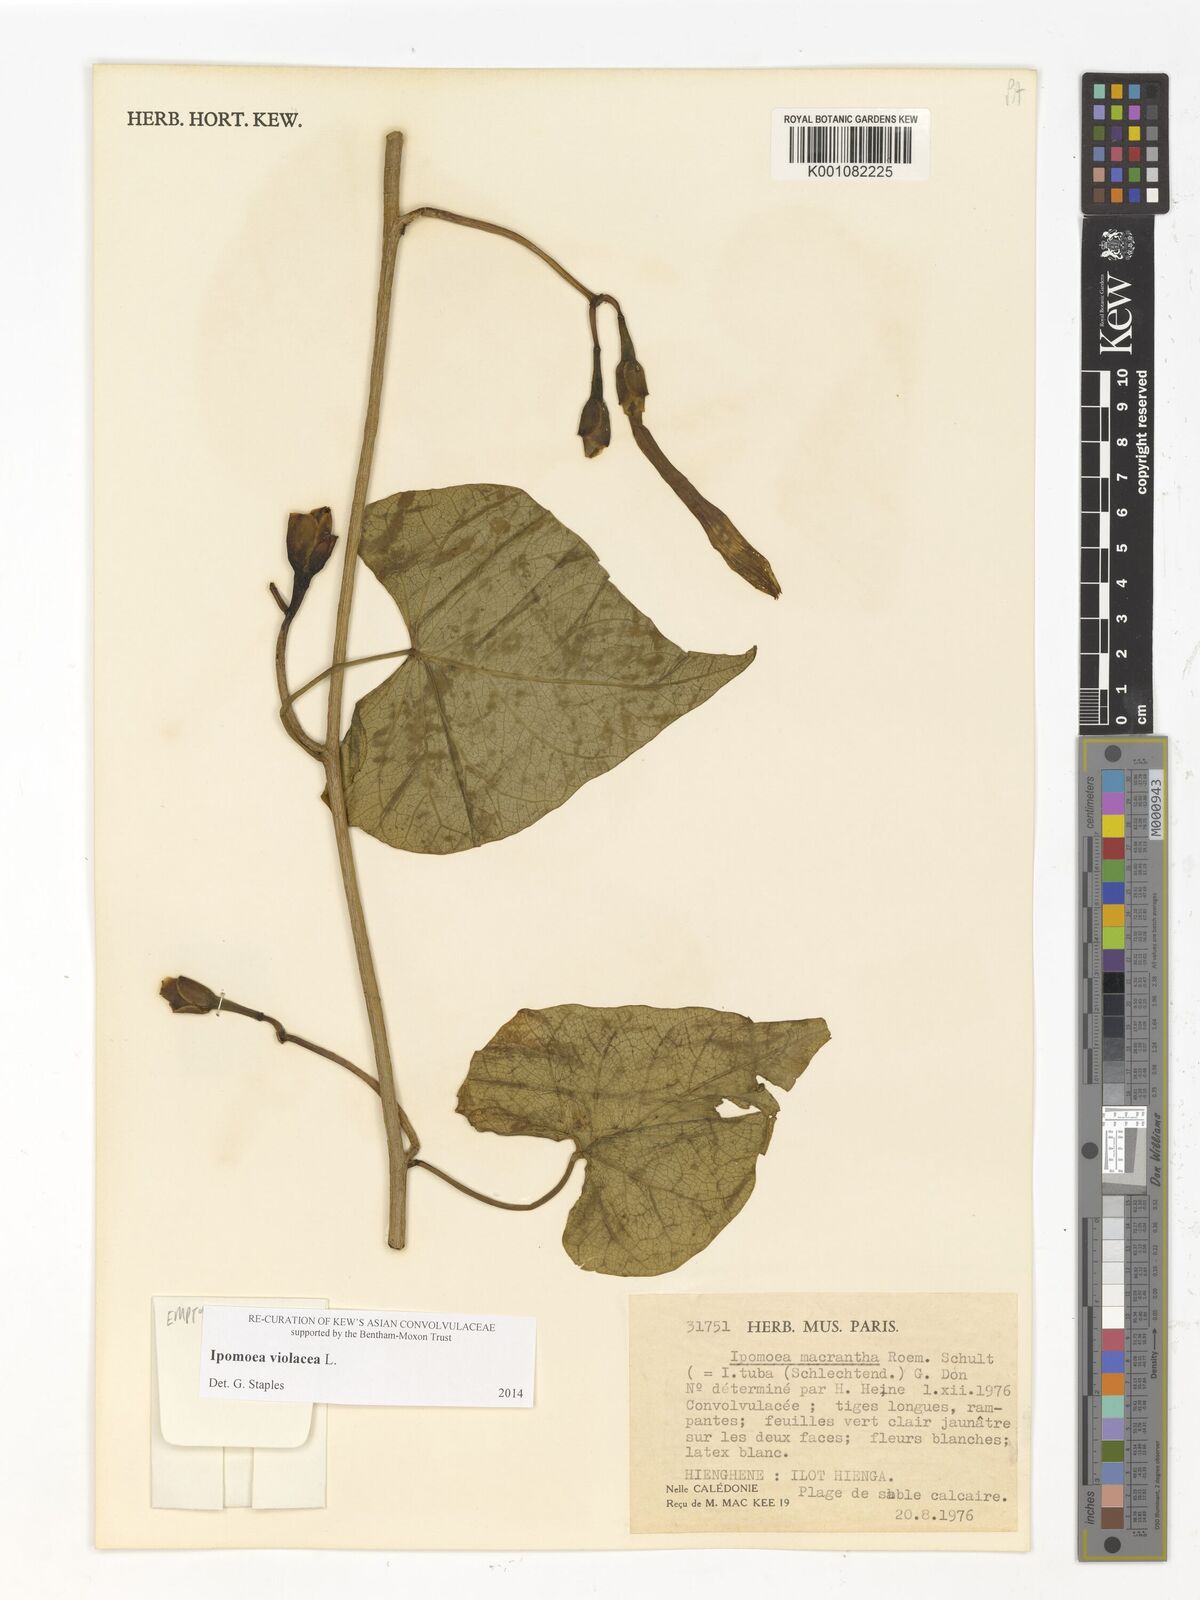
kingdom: Plantae
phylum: Tracheophyta
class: Magnoliopsida
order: Solanales
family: Convolvulaceae
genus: Ipomoea
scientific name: Ipomoea violacea
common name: Beach moonflower
